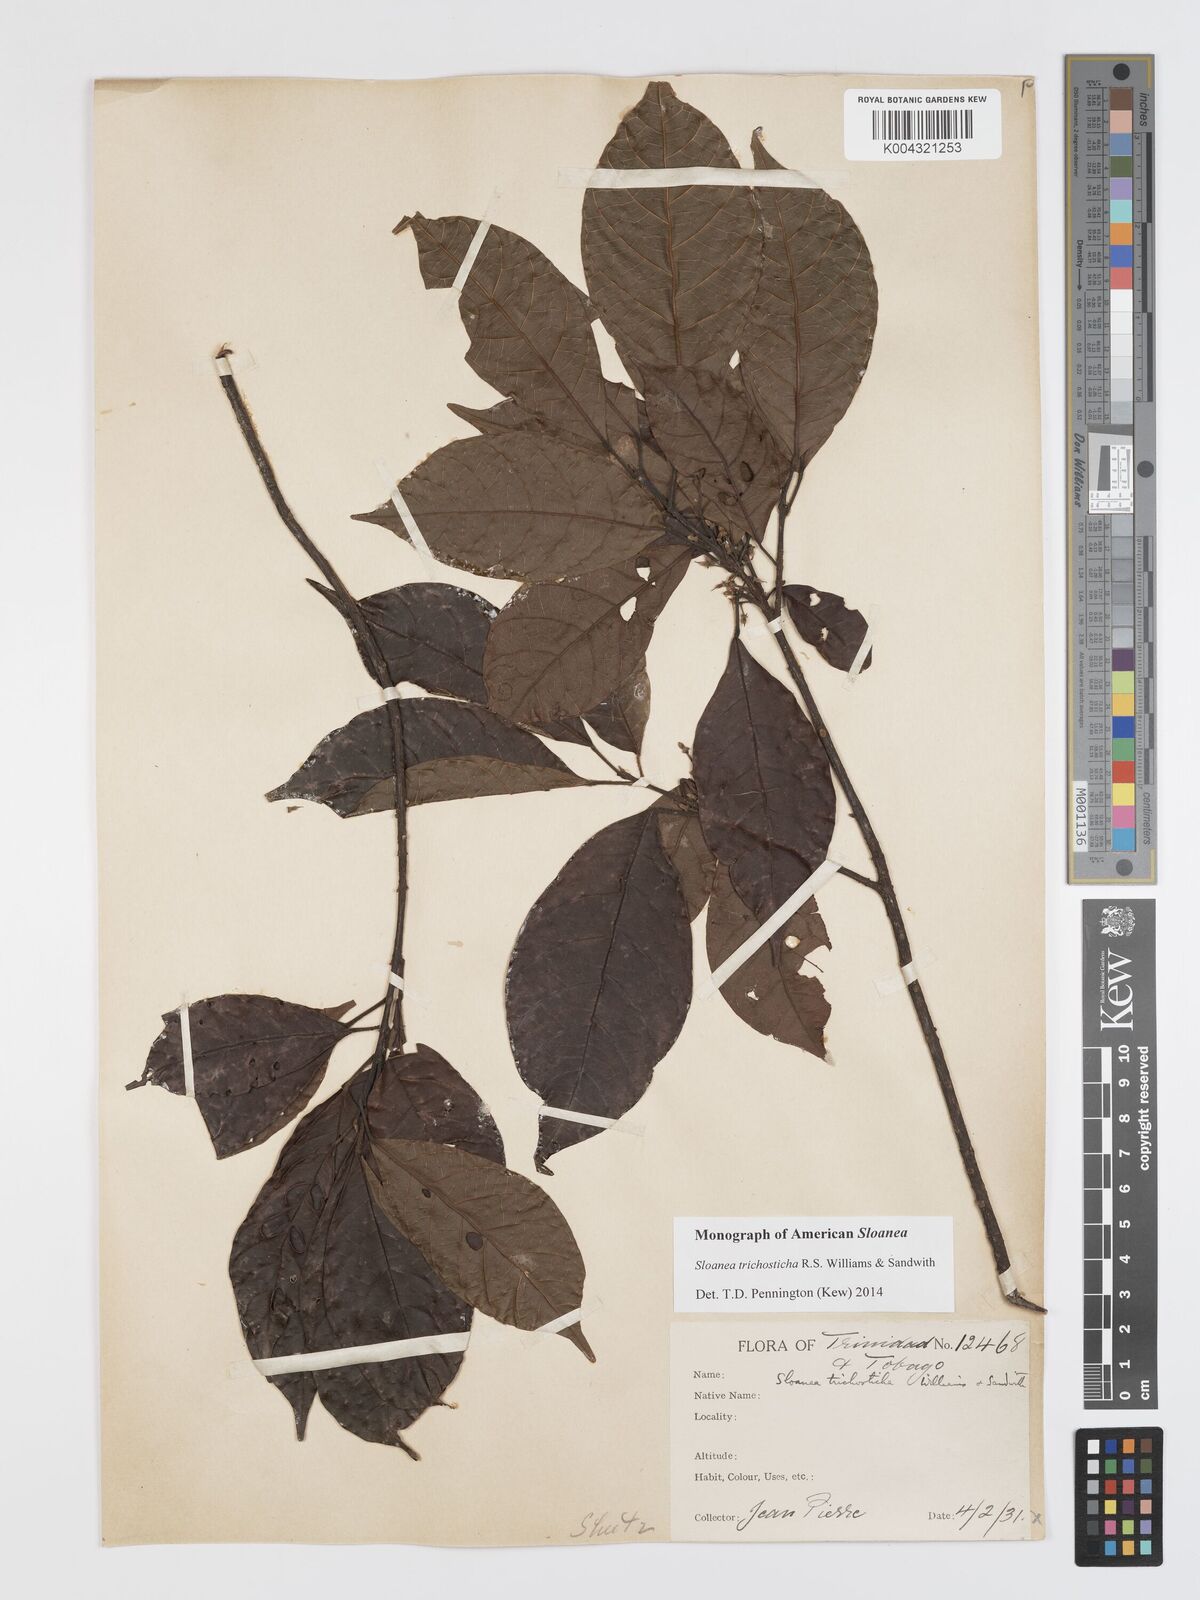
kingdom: Plantae
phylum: Tracheophyta
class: Magnoliopsida
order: Oxalidales
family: Elaeocarpaceae
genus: Sloanea
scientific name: Sloanea trichosticha
